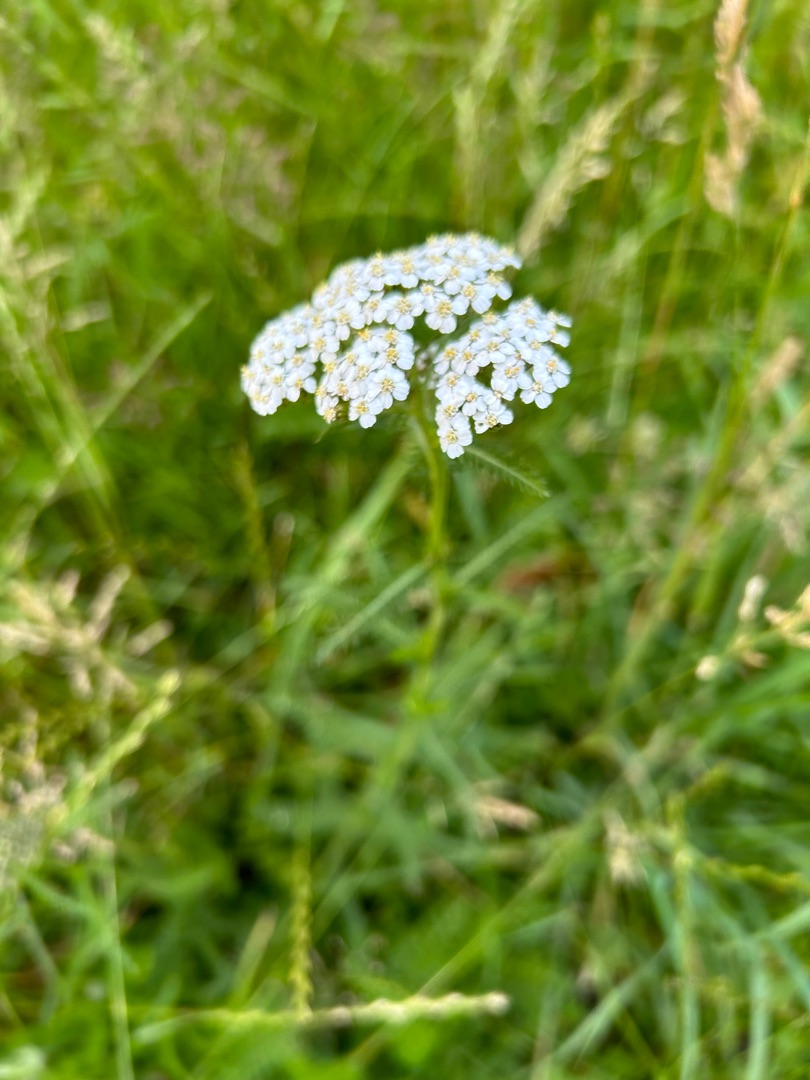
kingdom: Plantae
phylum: Tracheophyta
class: Magnoliopsida
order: Asterales
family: Asteraceae
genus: Achillea
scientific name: Achillea millefolium
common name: Almindelig røllike
